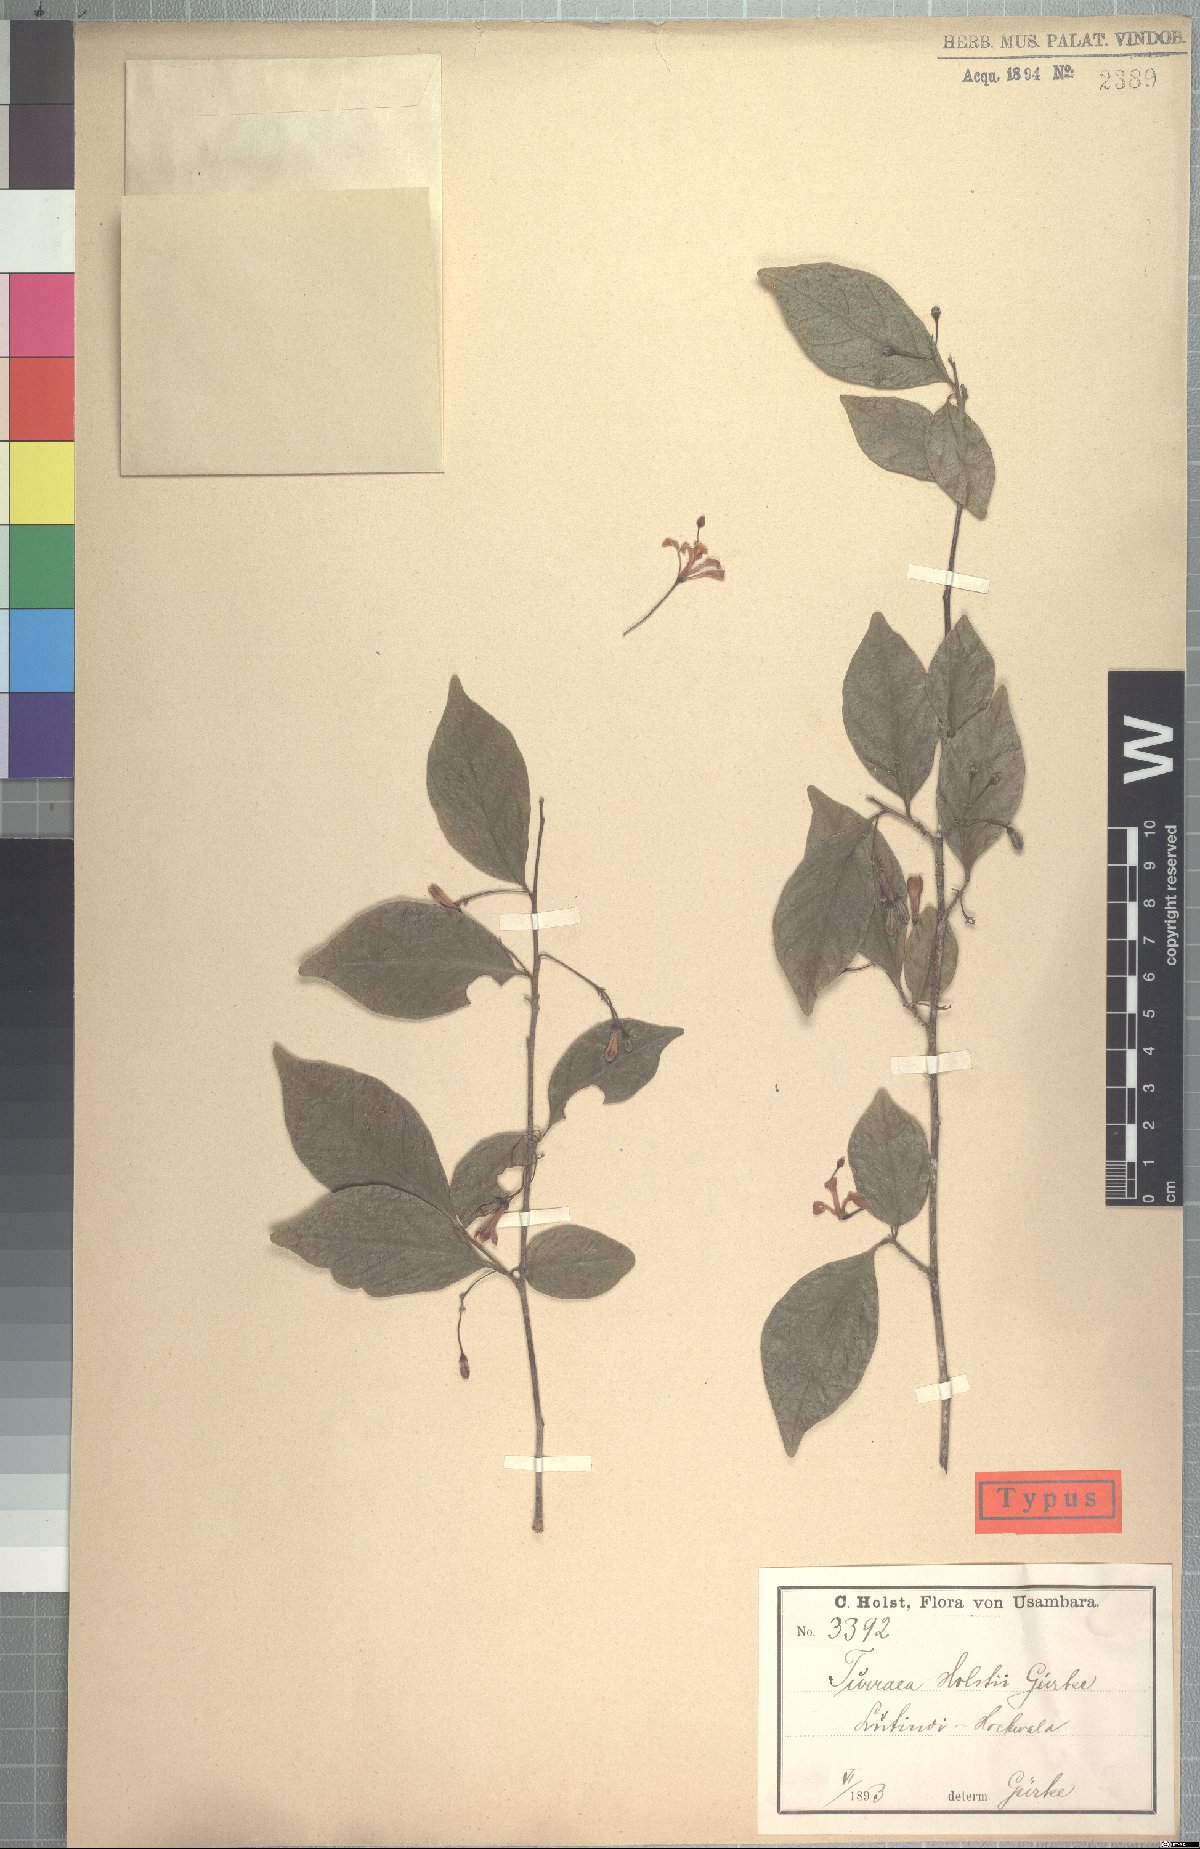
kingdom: Plantae
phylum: Tracheophyta
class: Magnoliopsida
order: Sapindales
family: Meliaceae
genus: Turraea
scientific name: Turraea holstii
